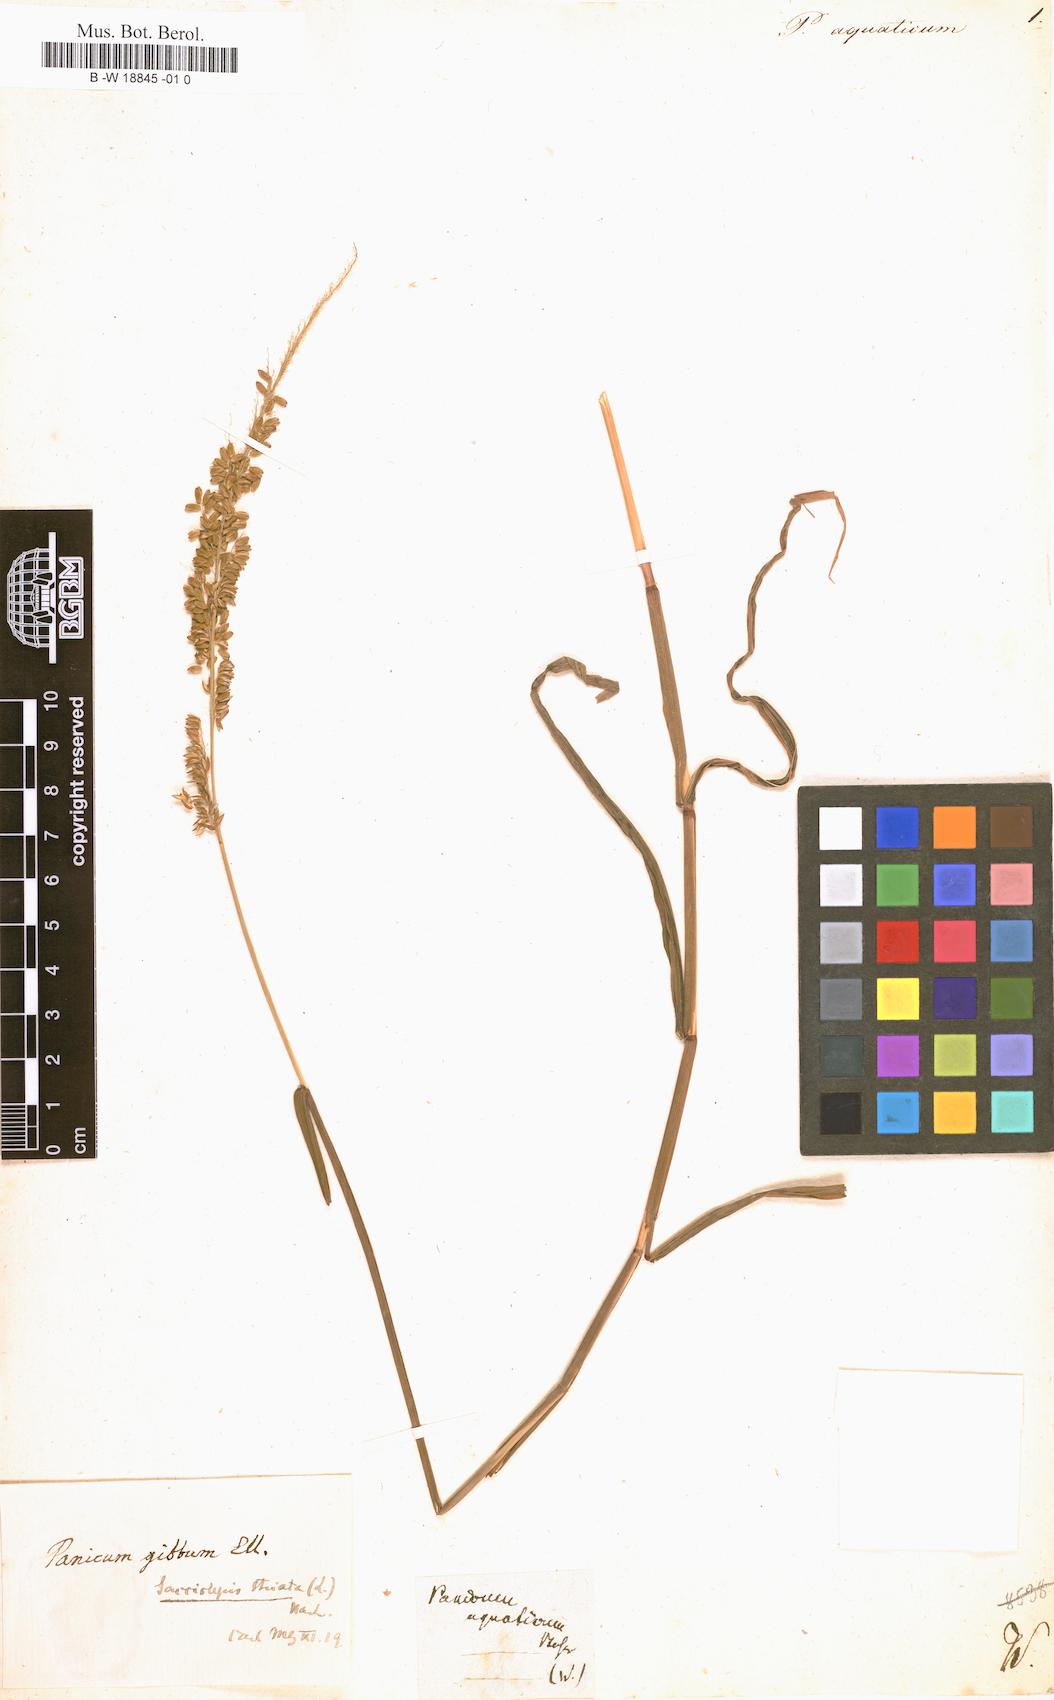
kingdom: Plantae
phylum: Tracheophyta
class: Liliopsida
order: Poales
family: Poaceae
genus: Panicum
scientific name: Panicum aquaticum
